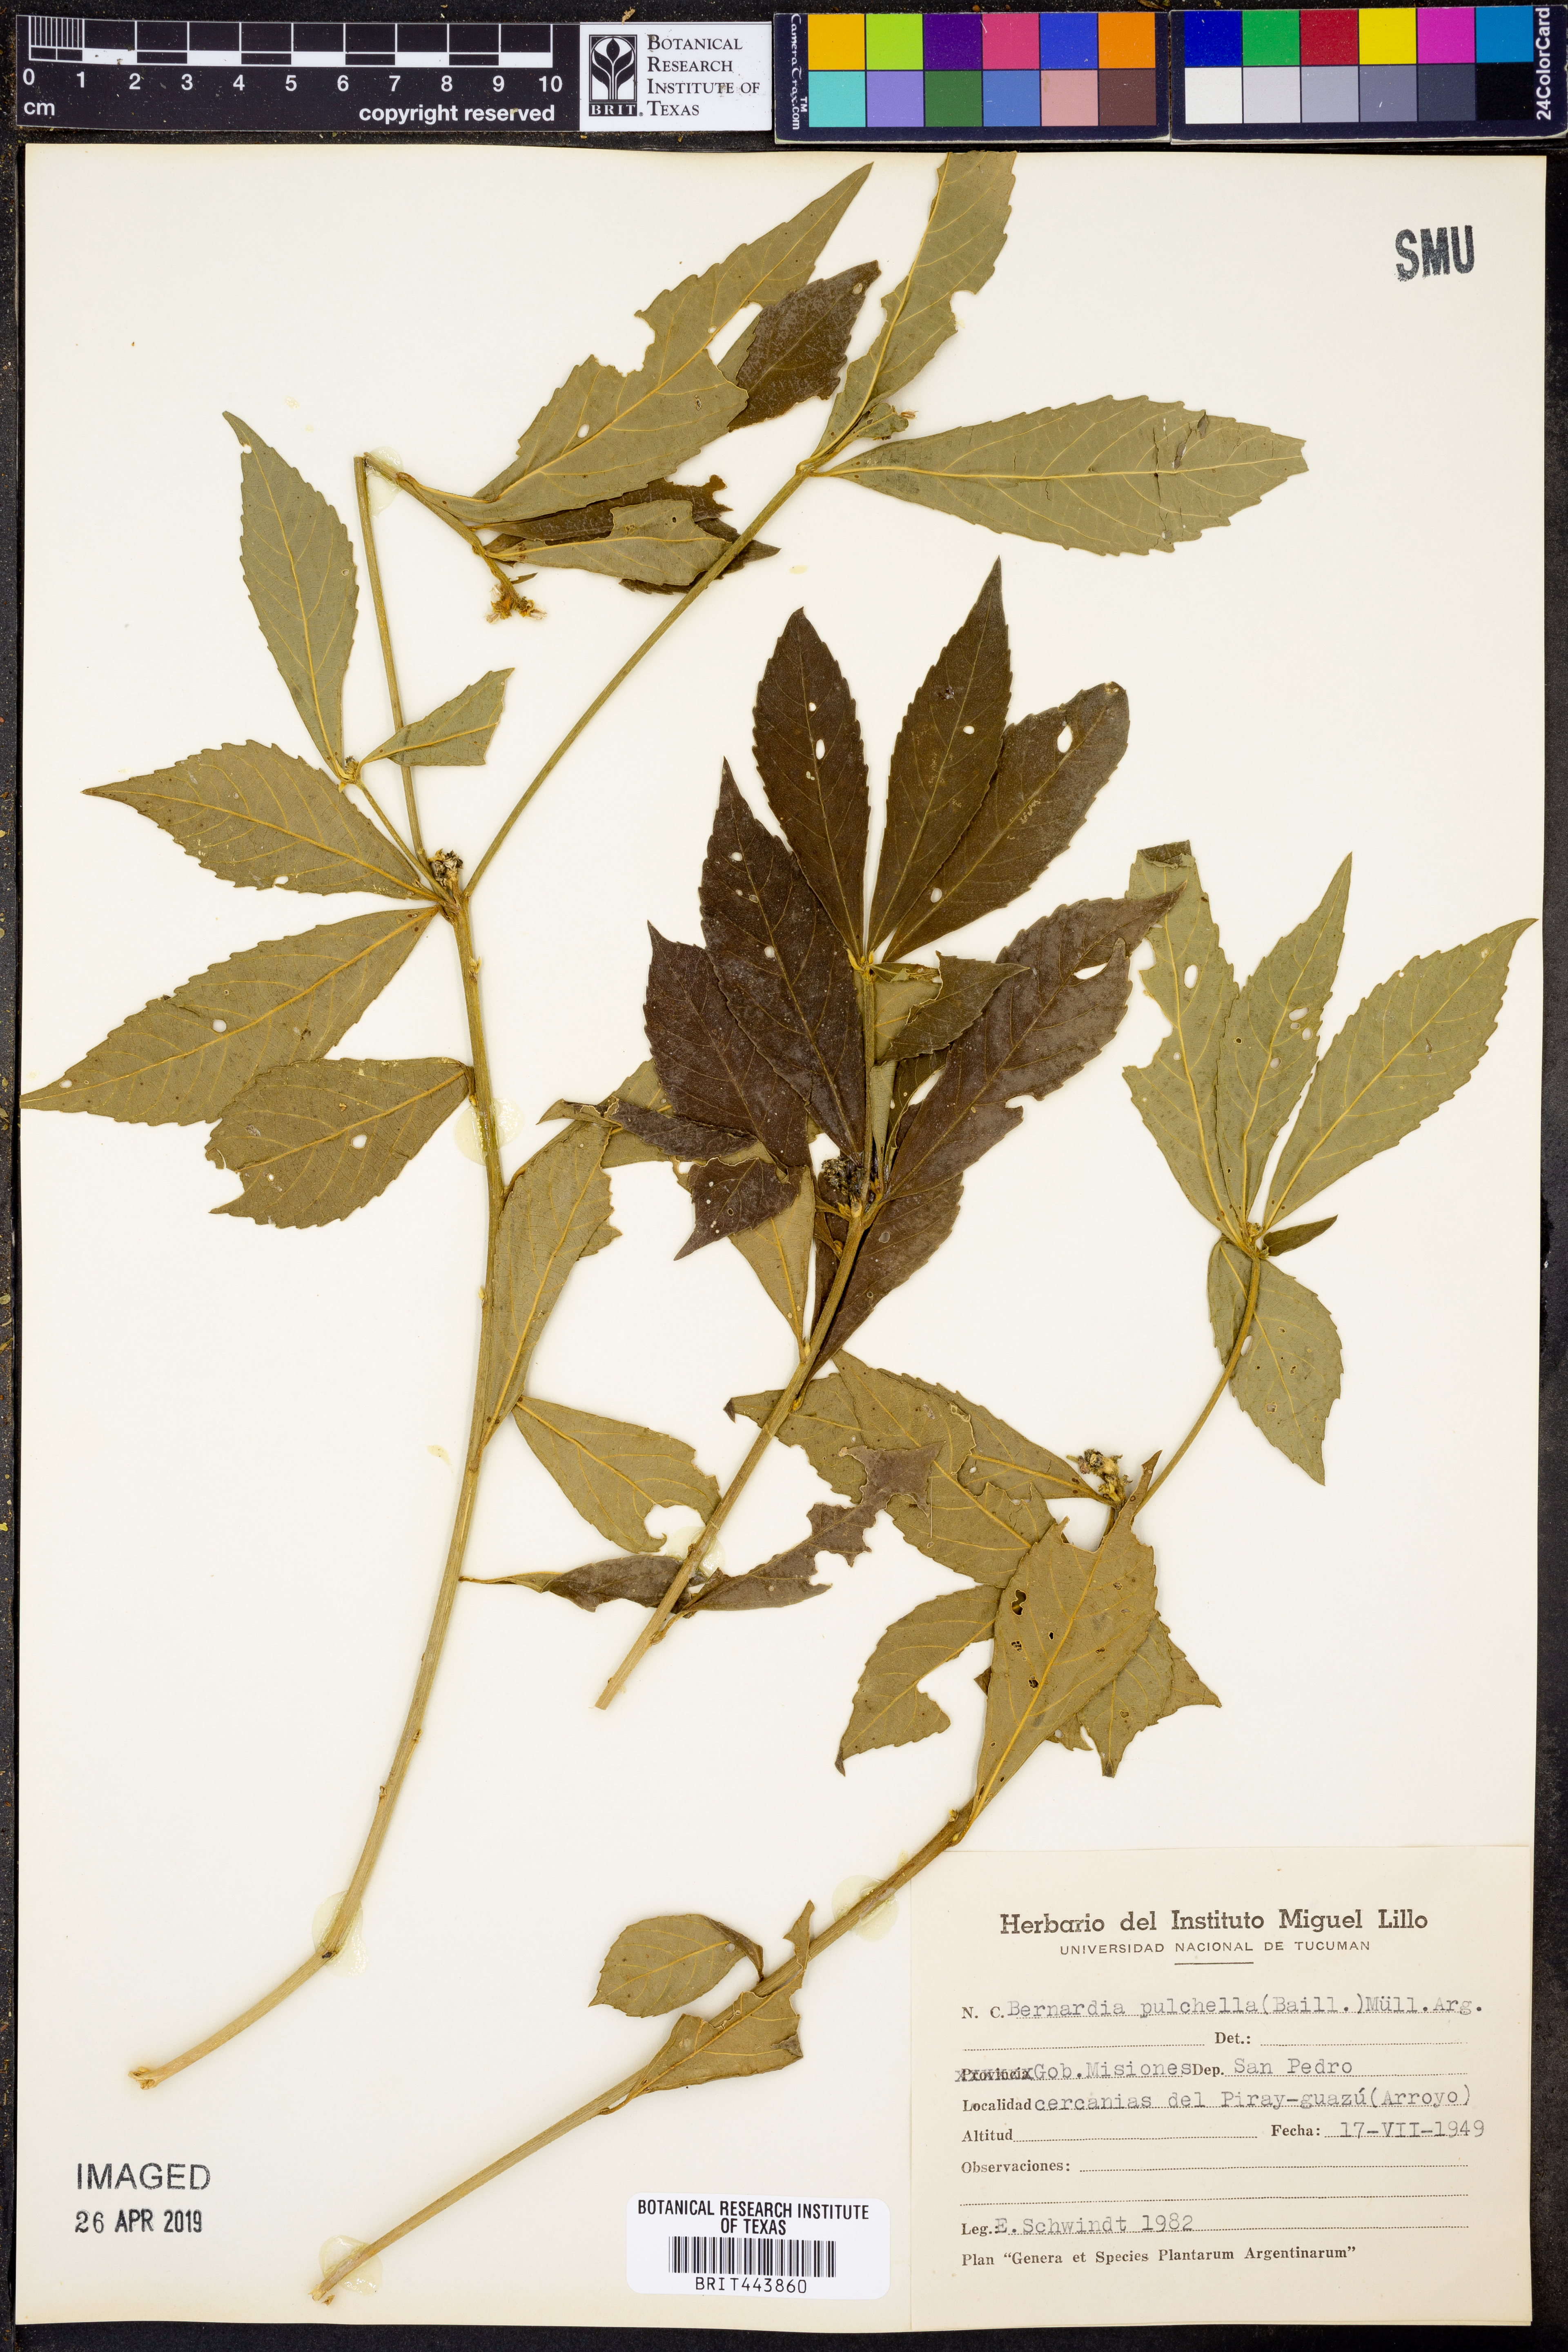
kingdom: Plantae
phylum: Tracheophyta
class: Magnoliopsida
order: Malpighiales
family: Euphorbiaceae
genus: Bernardia
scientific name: Bernardia pulchella
